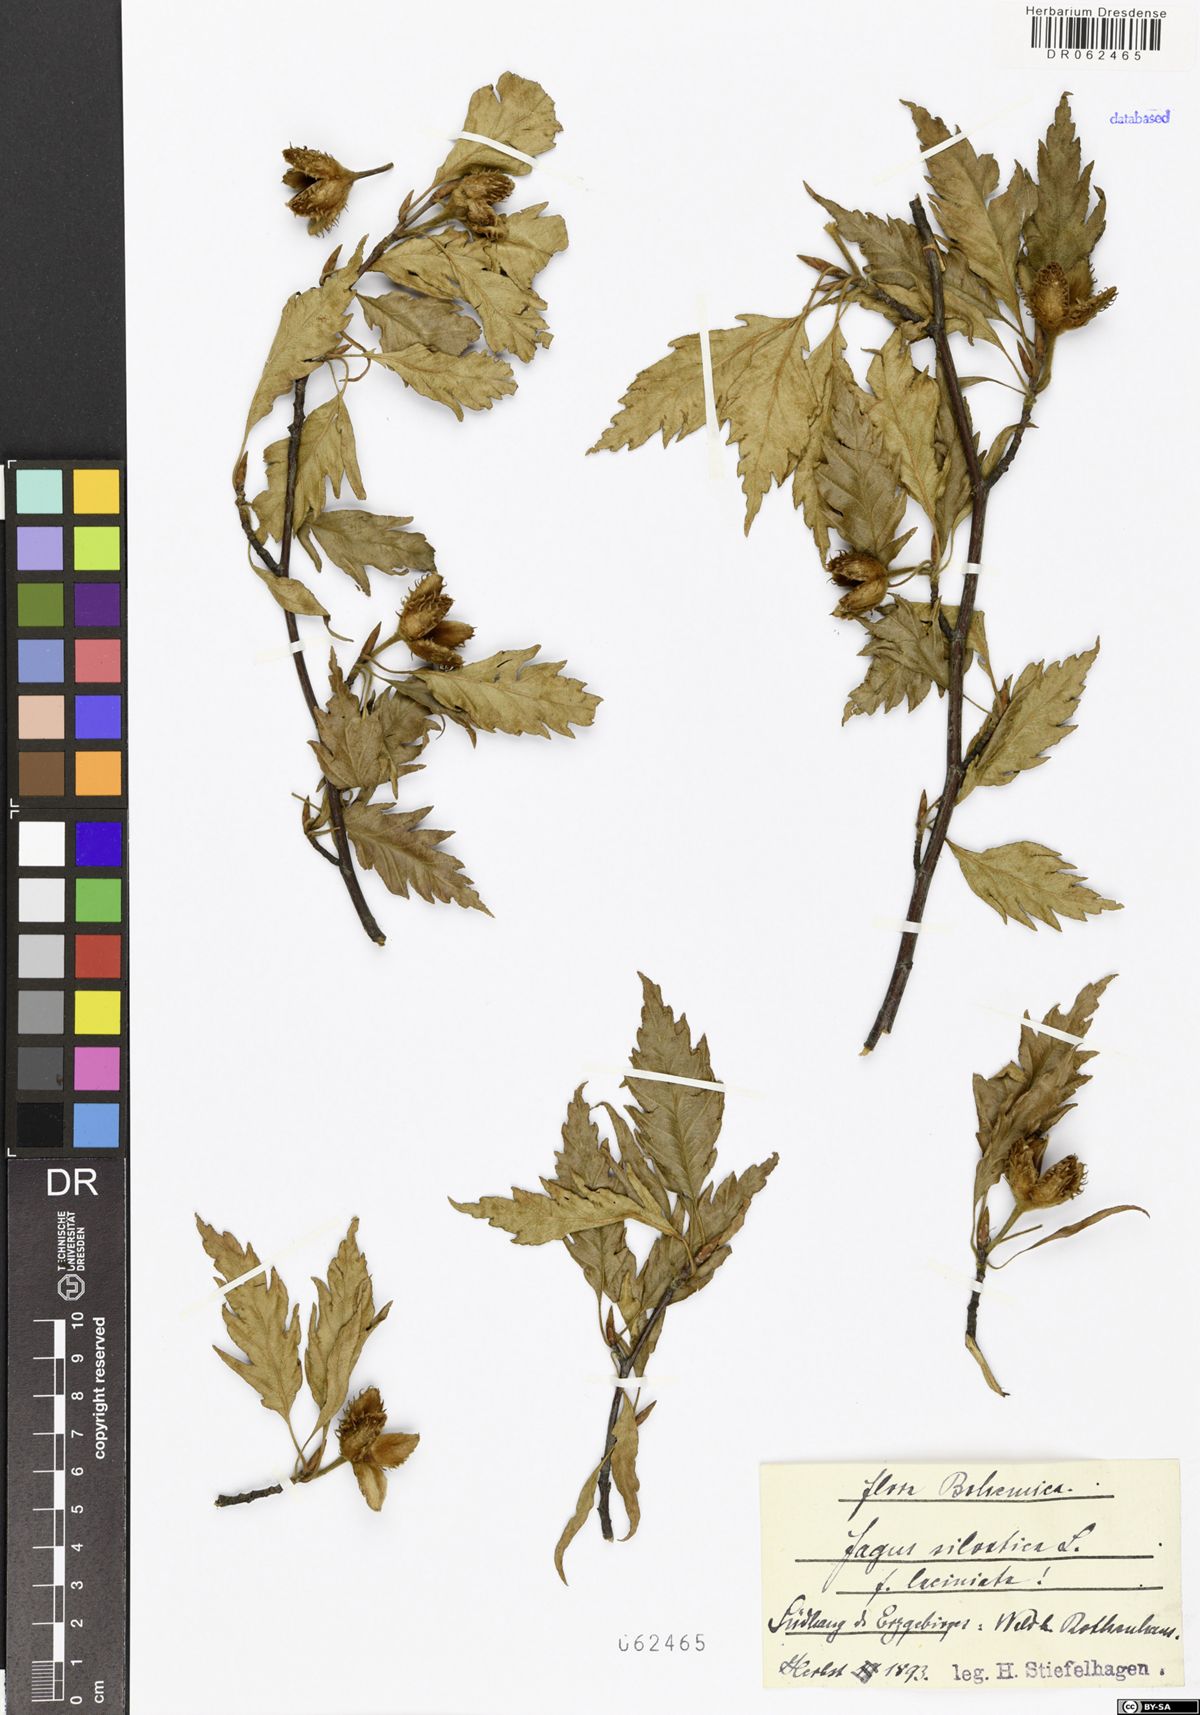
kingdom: Plantae
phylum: Tracheophyta
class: Magnoliopsida
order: Fagales
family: Fagaceae
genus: Fagus
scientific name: Fagus sylvatica
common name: Beech
